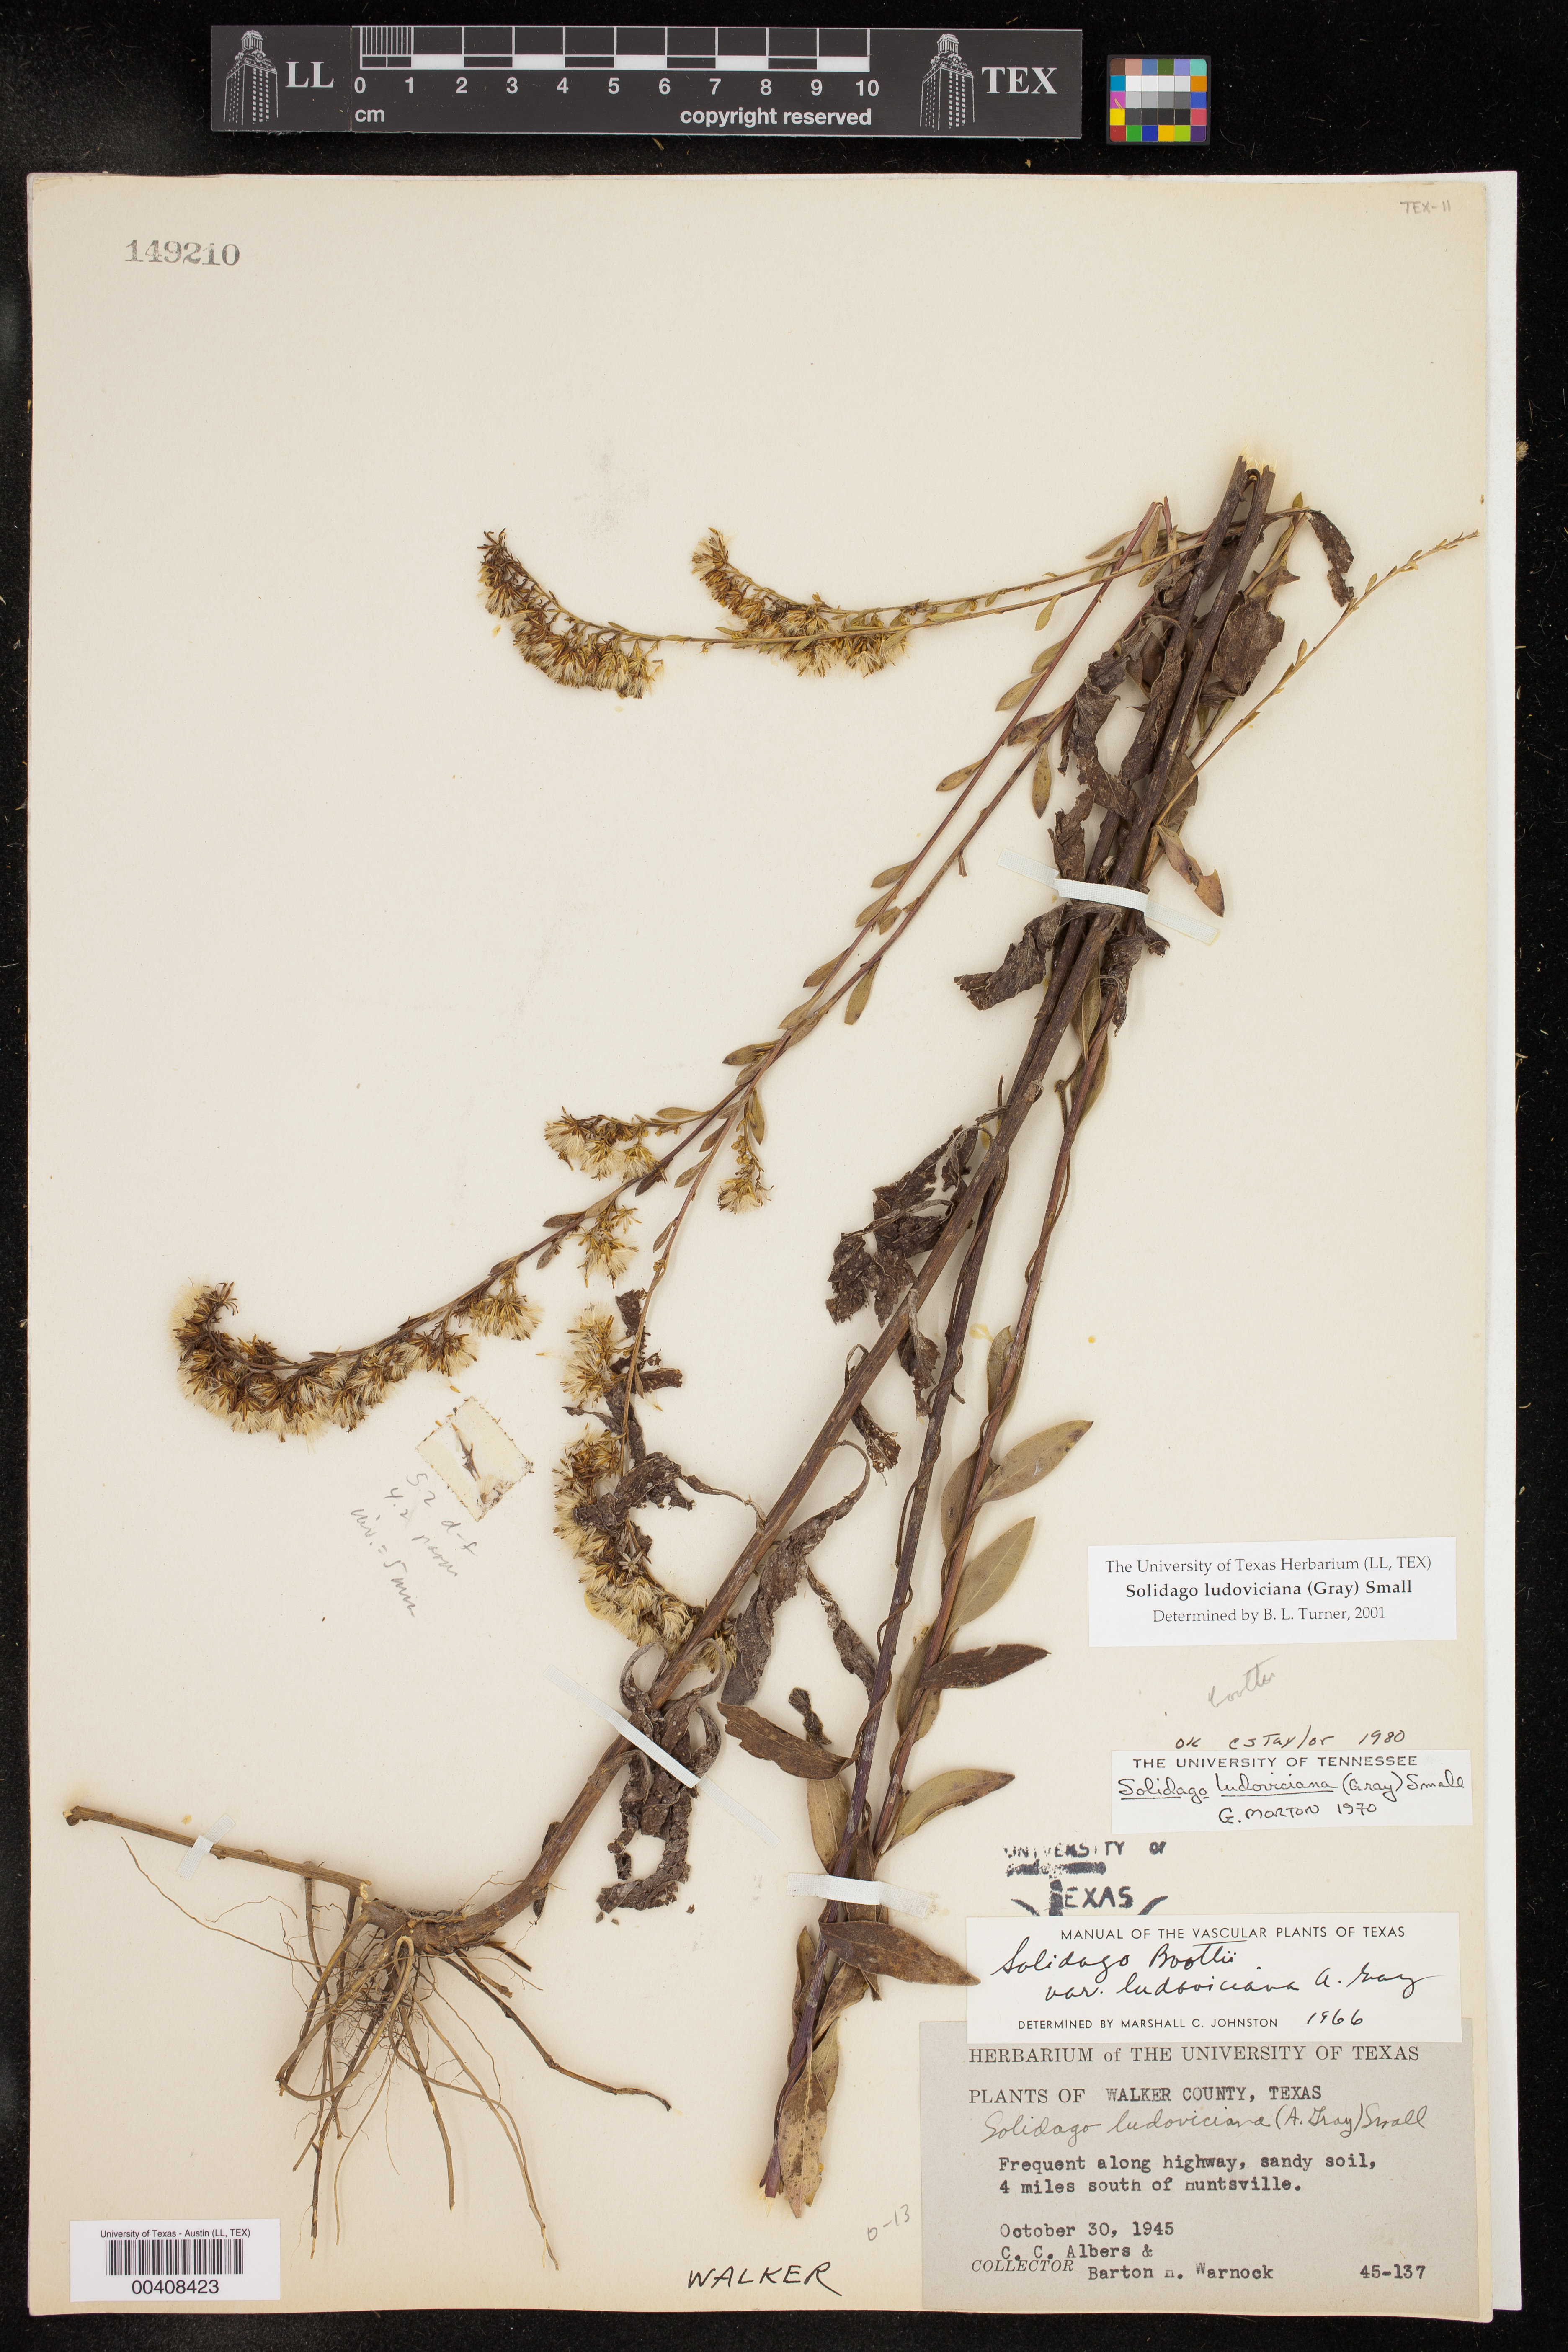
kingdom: Plantae
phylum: Tracheophyta
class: Magnoliopsida
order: Asterales
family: Asteraceae
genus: Solidago
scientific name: Solidago arguta
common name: Atlantic goldenrod
